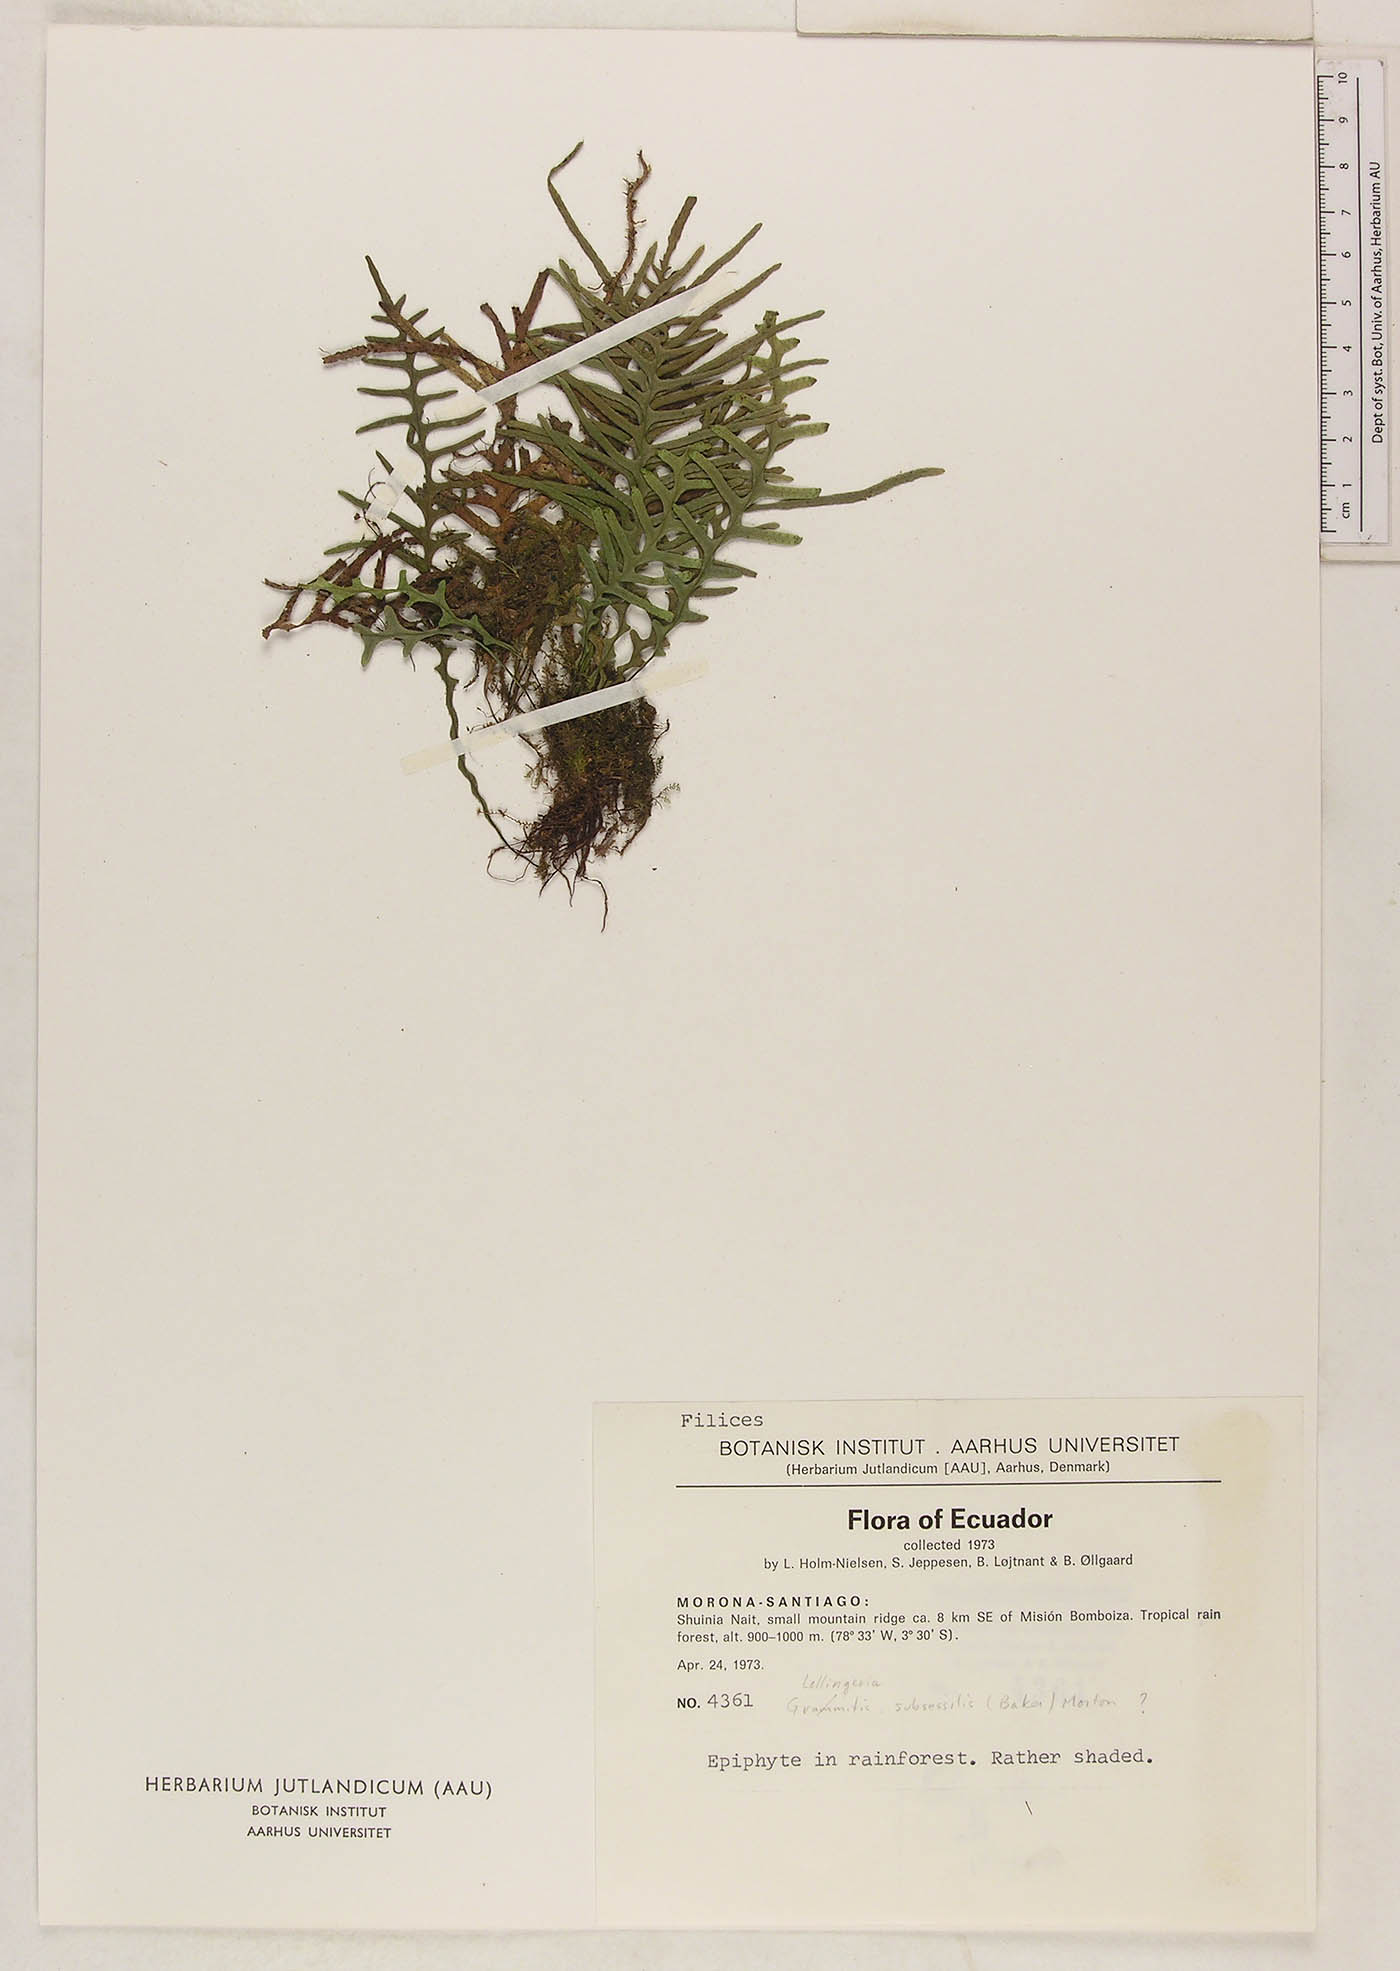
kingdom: Plantae
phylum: Tracheophyta
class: Polypodiopsida
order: Polypodiales
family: Polypodiaceae
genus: Lellingeria
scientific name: Lellingeria subsessilis
